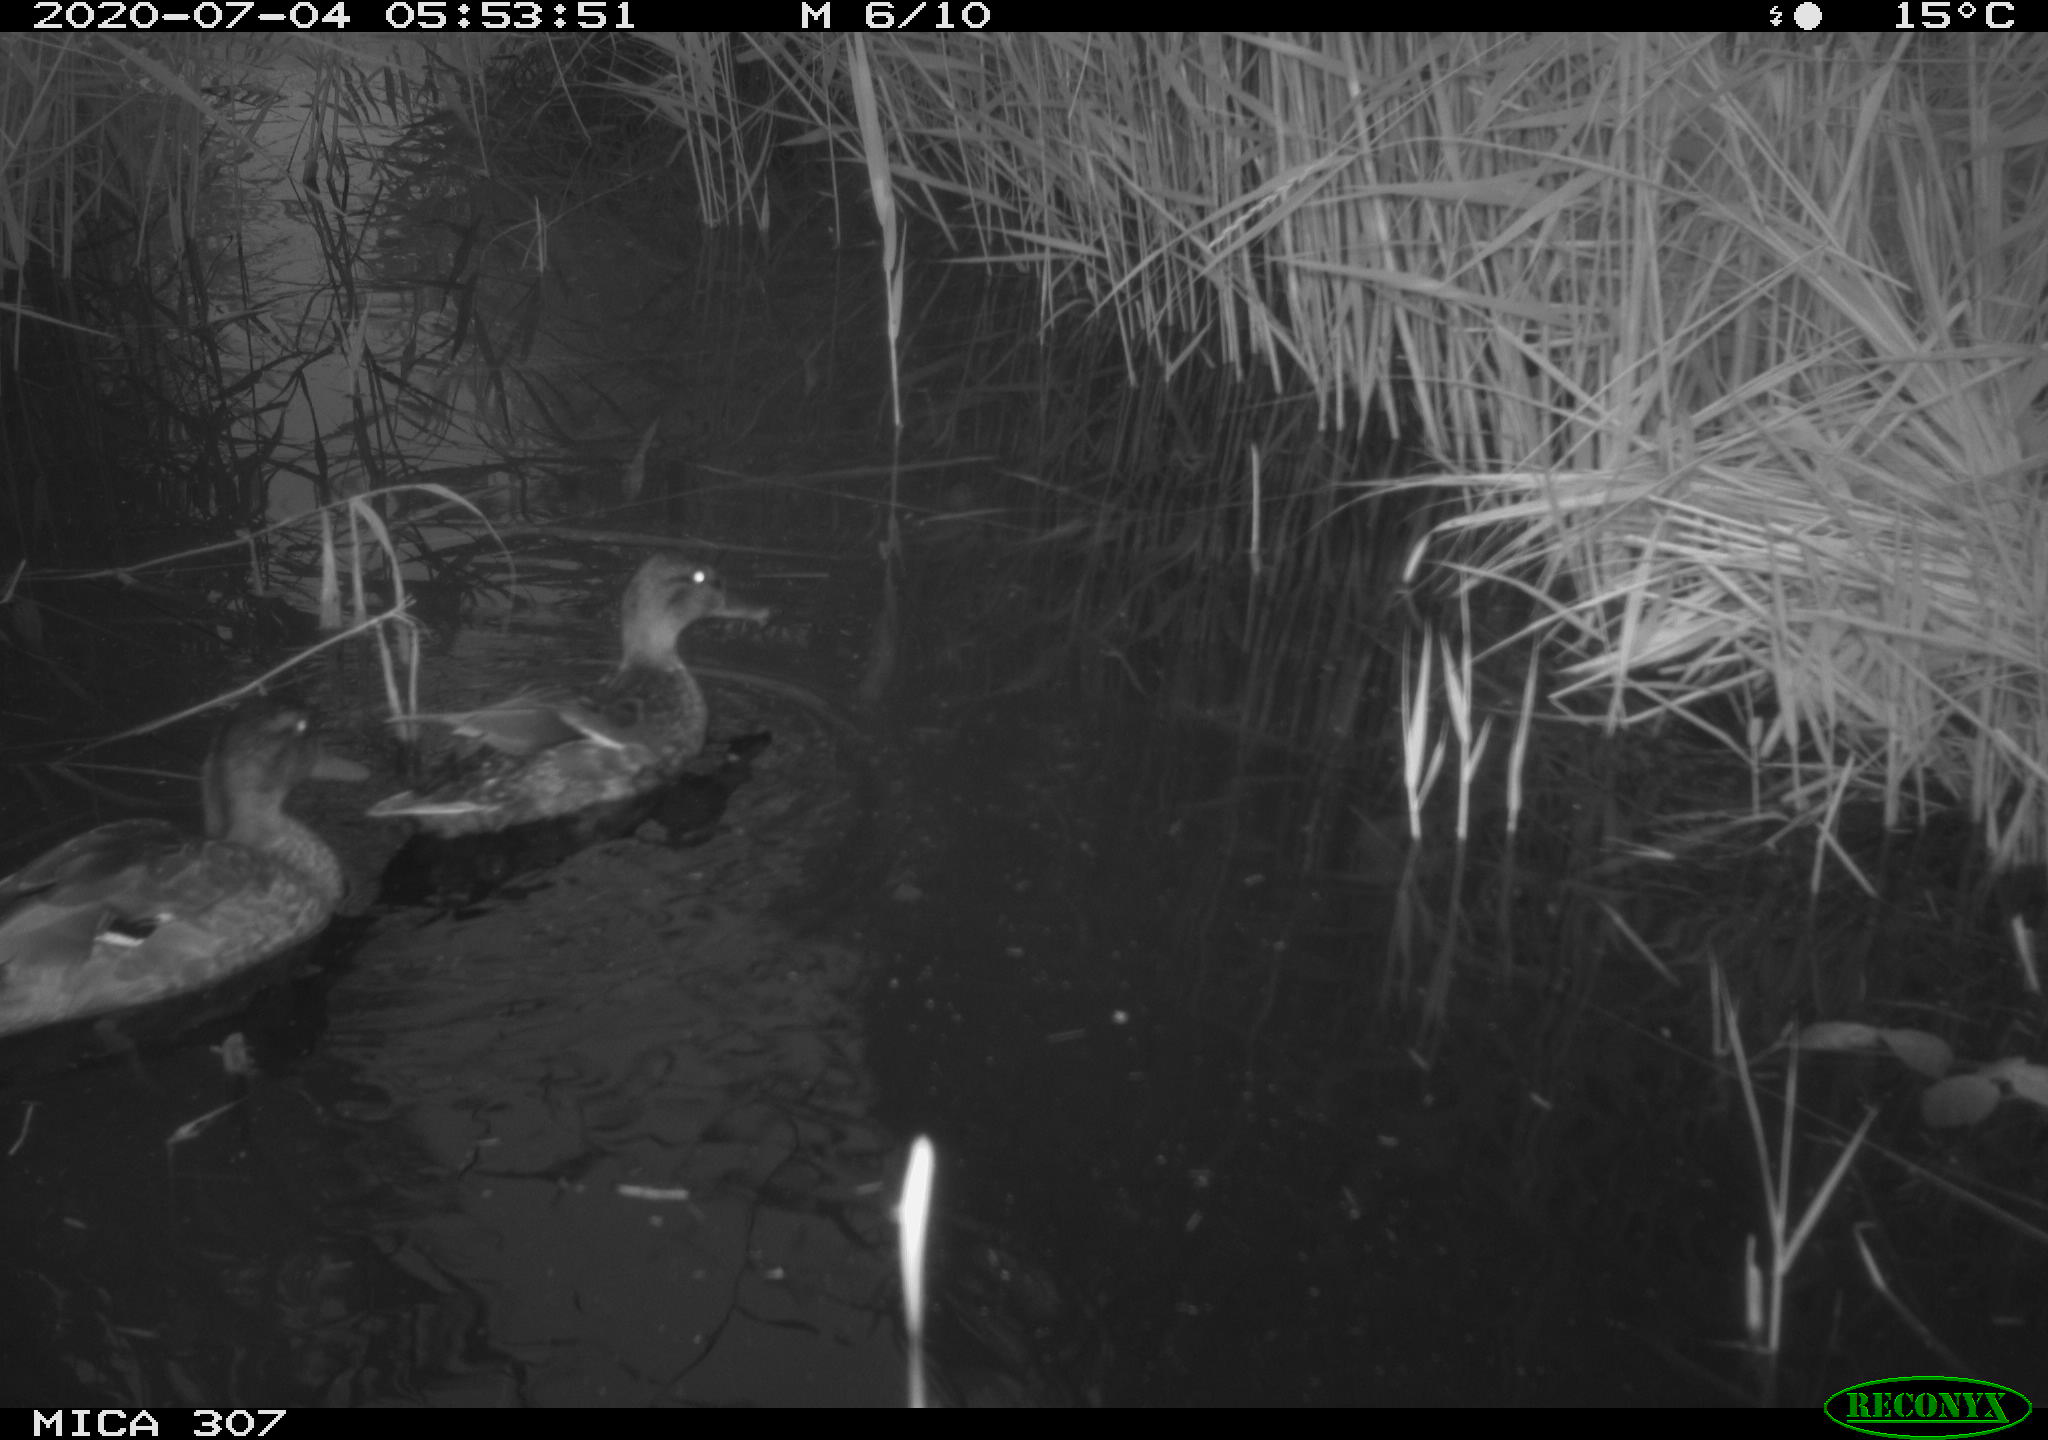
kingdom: Animalia
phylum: Chordata
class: Aves
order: Anseriformes
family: Anatidae
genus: Anas
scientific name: Anas platyrhynchos
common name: Mallard
